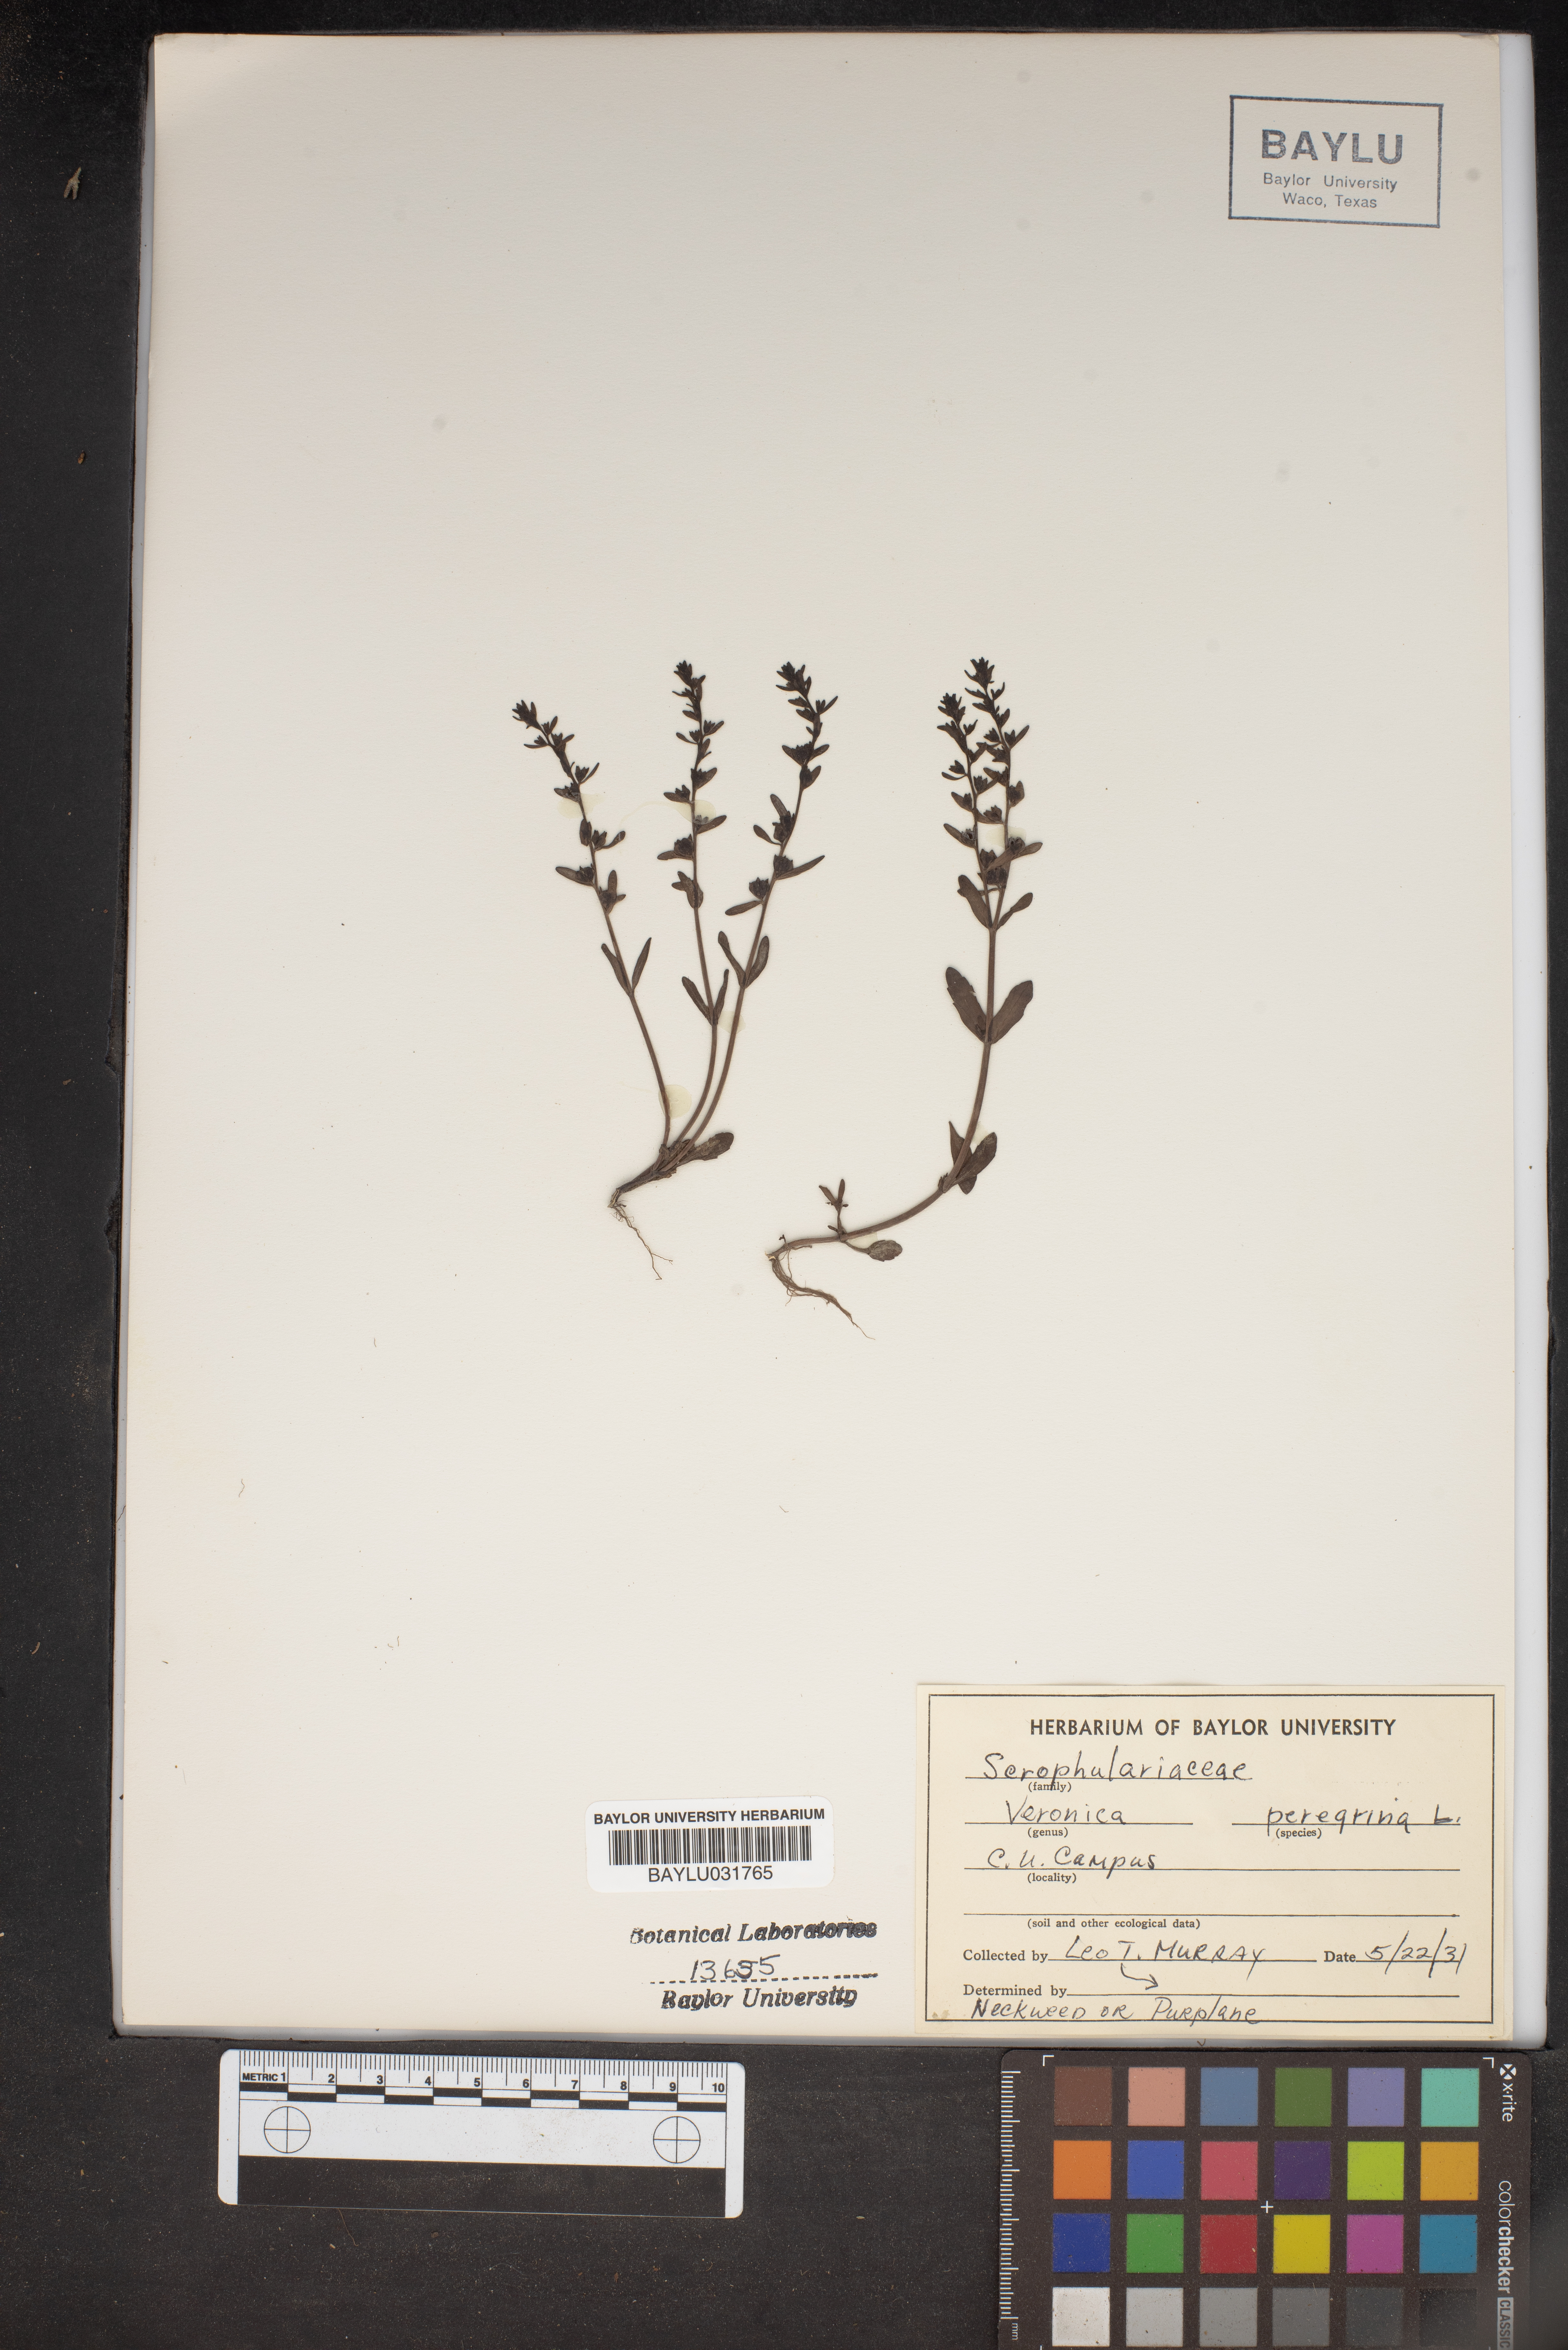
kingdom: Plantae
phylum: Tracheophyta
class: Magnoliopsida
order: Lamiales
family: Plantaginaceae
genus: Veronica
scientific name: Veronica peregrina
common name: Neckweed
